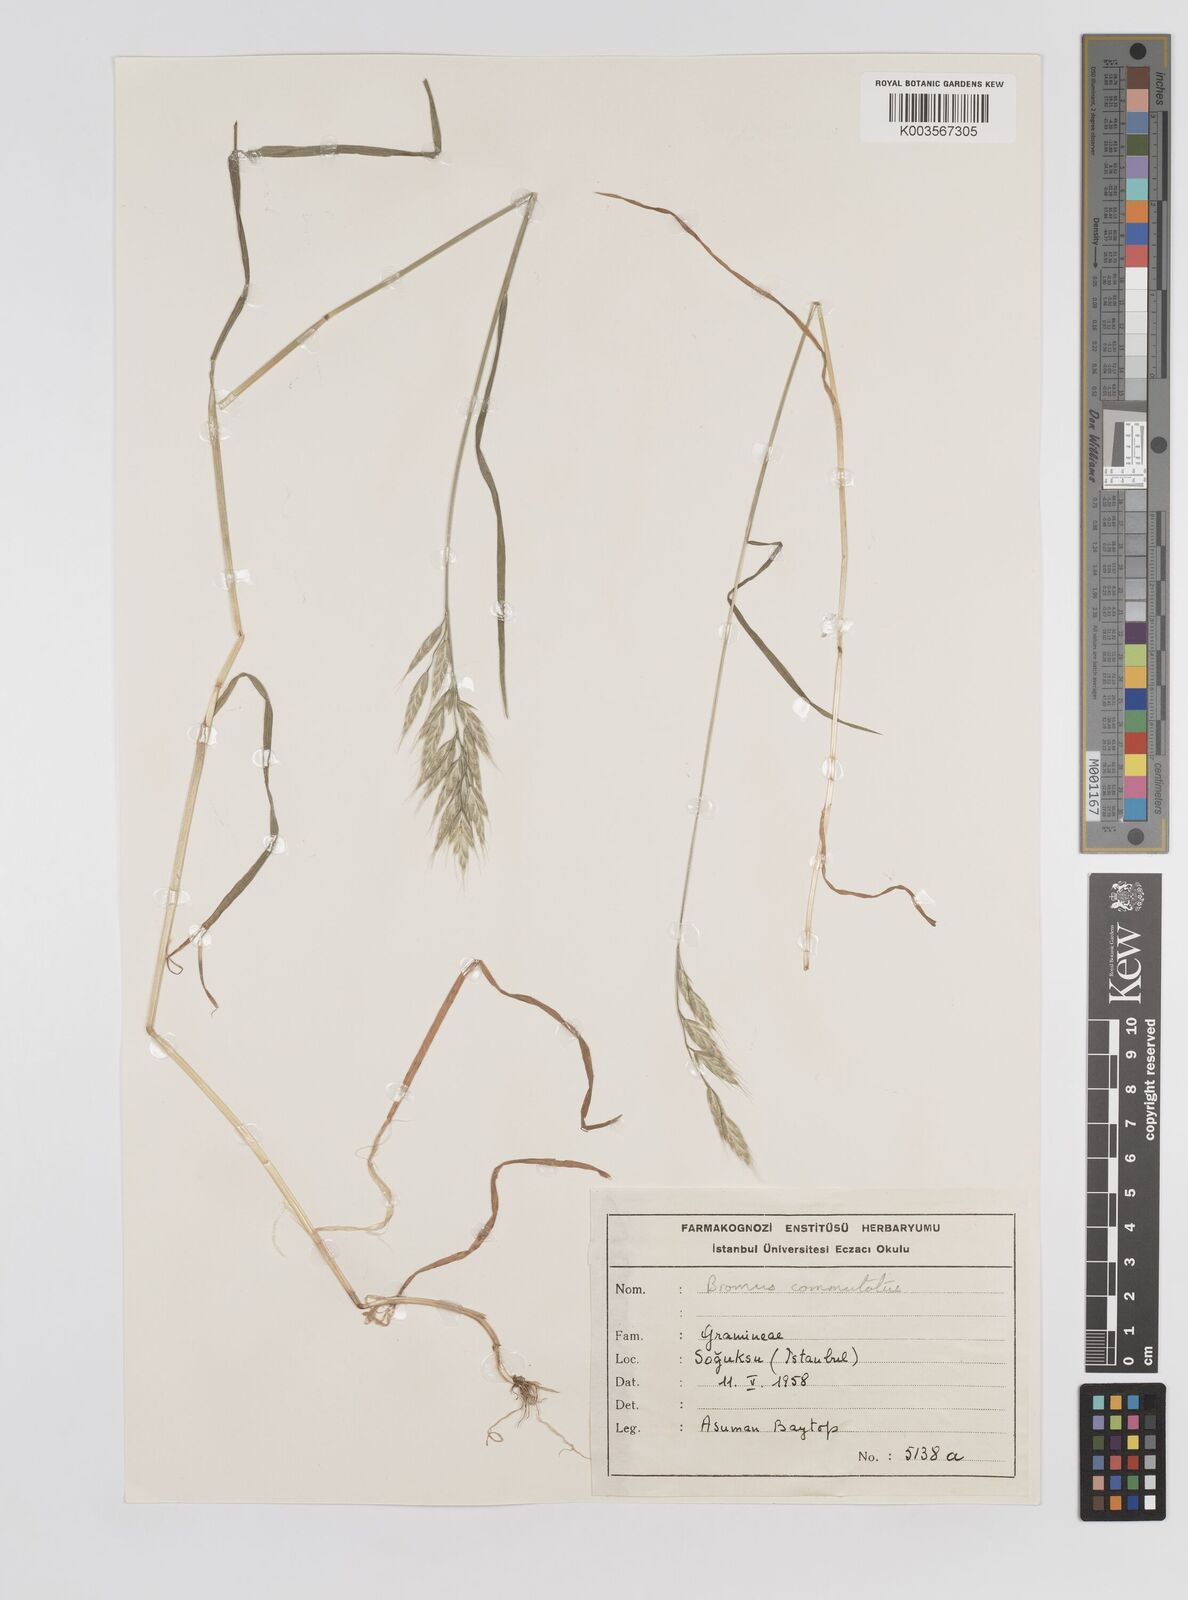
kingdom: Plantae
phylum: Tracheophyta
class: Liliopsida
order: Poales
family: Poaceae
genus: Bromus
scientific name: Bromus racemosus
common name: Bald brome
